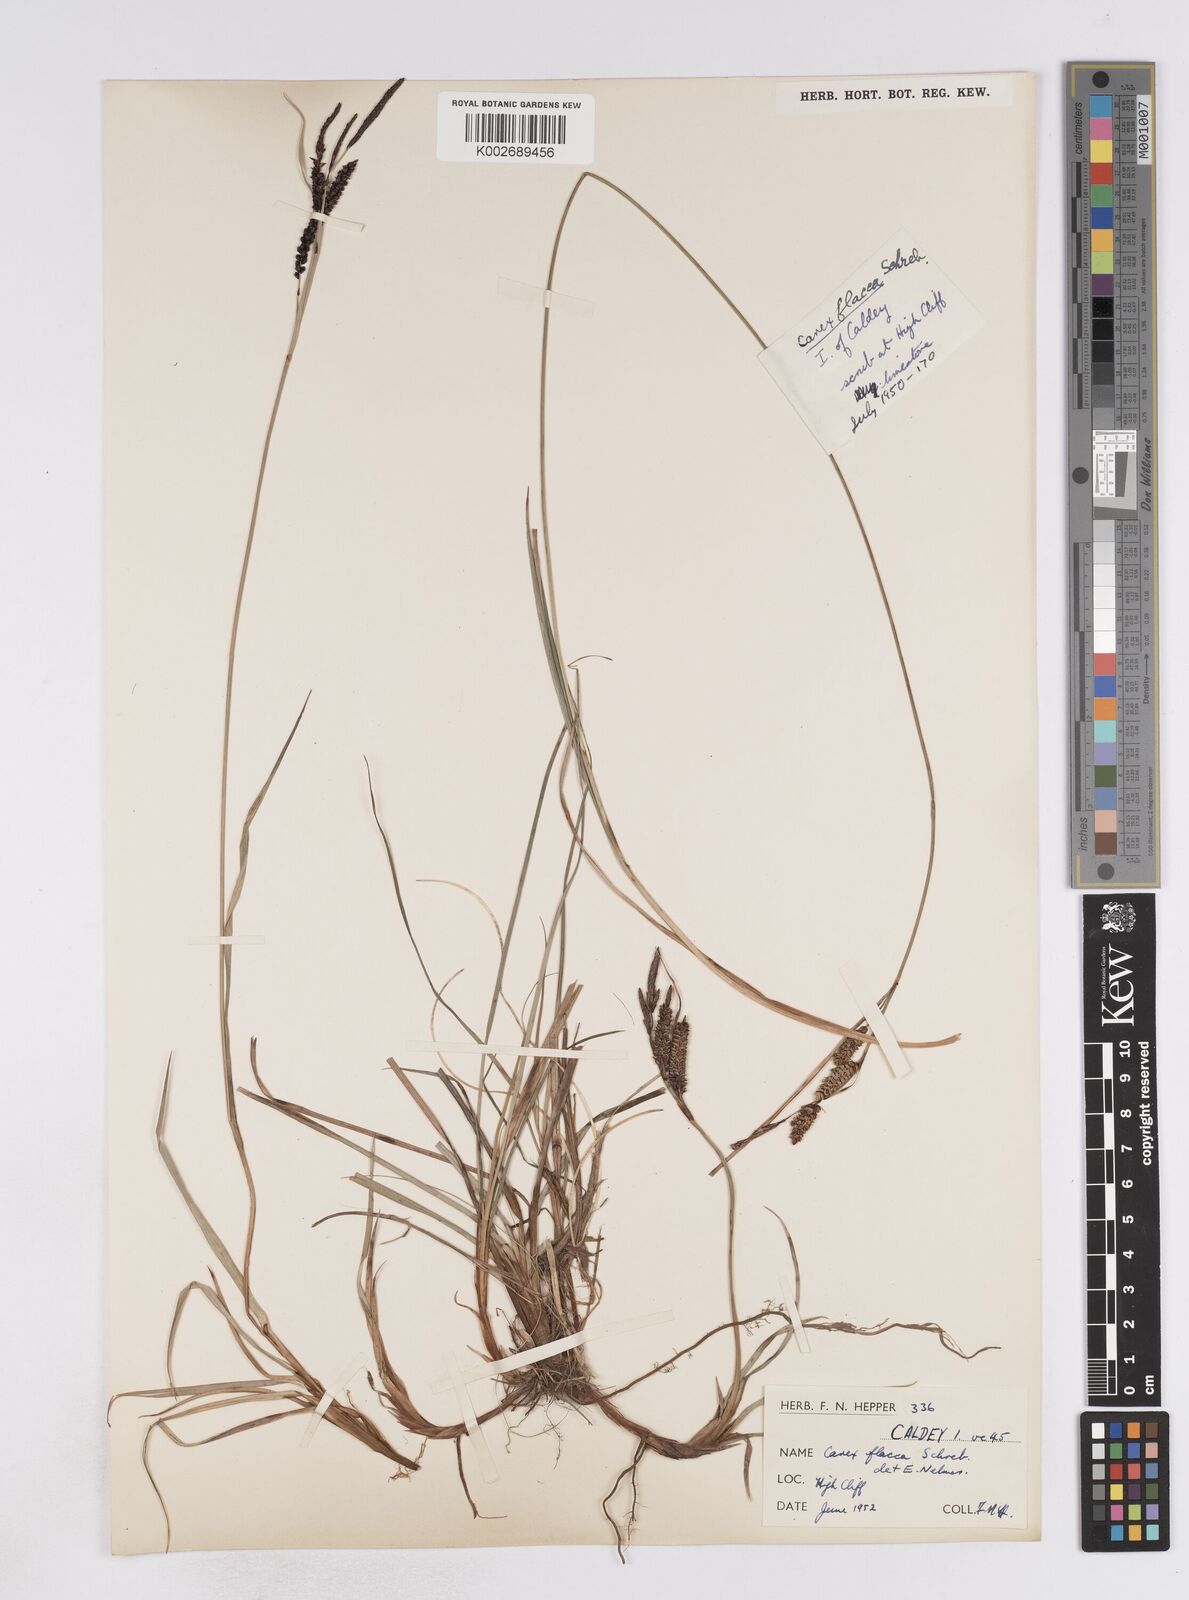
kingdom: Plantae
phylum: Tracheophyta
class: Liliopsida
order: Poales
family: Cyperaceae
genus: Carex
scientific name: Carex flacca
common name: Glaucous sedge
